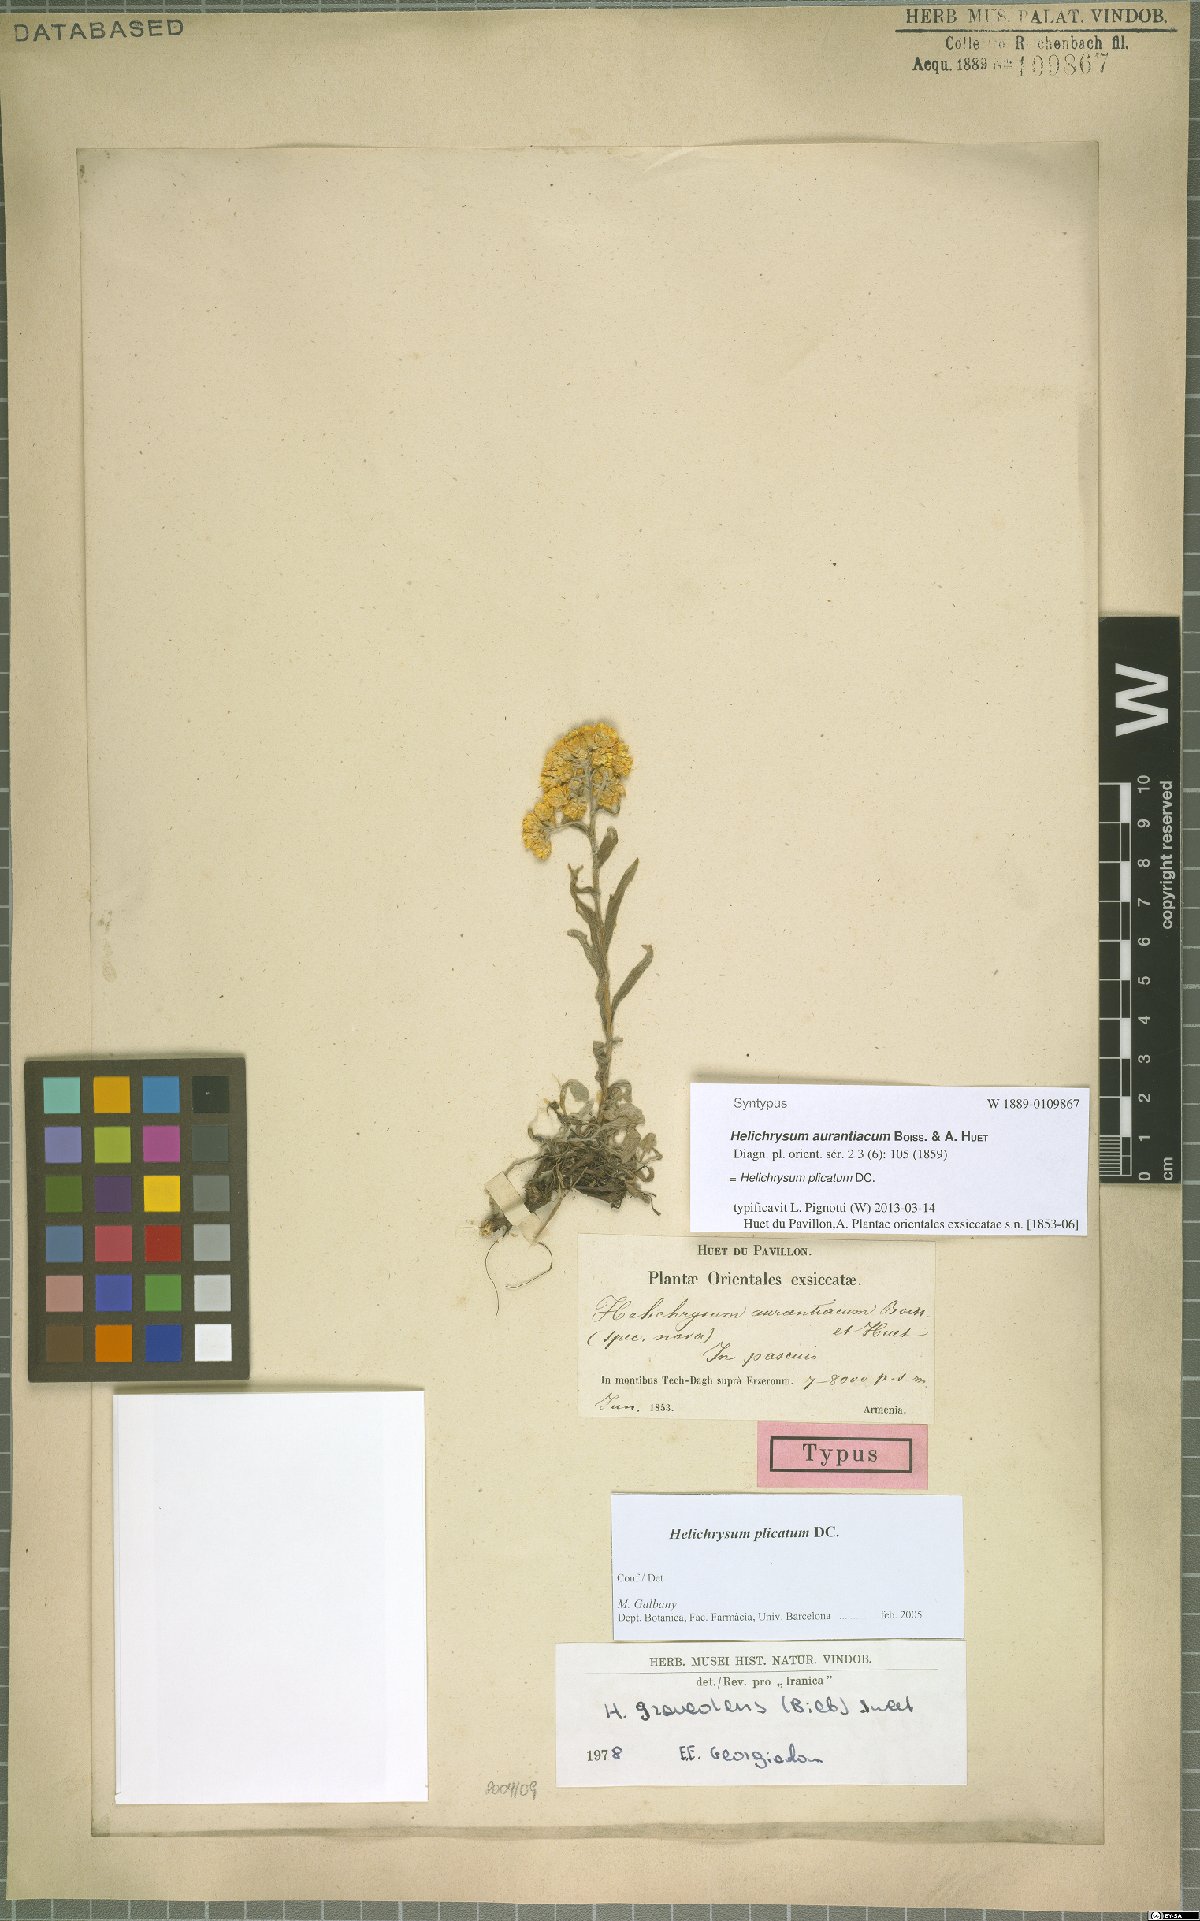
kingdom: Plantae
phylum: Tracheophyta
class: Magnoliopsida
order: Asterales
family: Asteraceae
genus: Helichrysum
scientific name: Helichrysum plicatum
